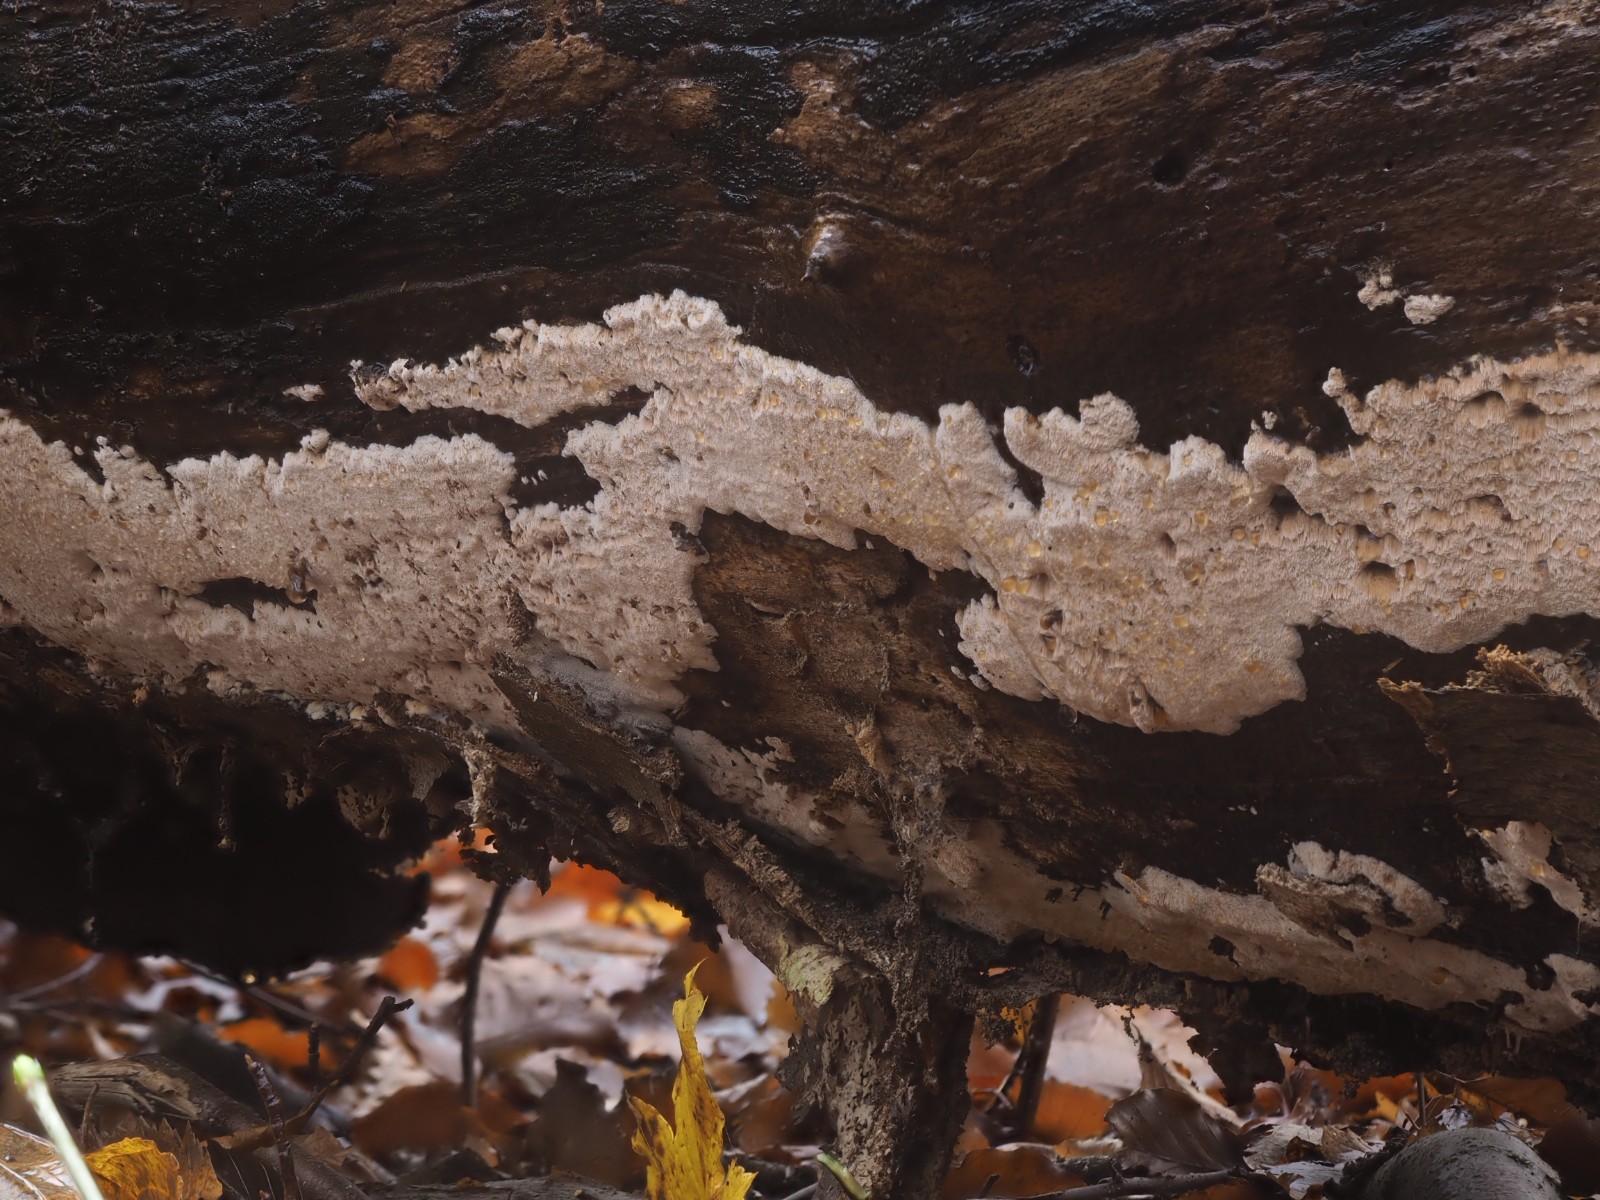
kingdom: Fungi
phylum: Basidiomycota
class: Agaricomycetes
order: Polyporales
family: Meruliaceae
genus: Mycoacia
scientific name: Mycoacia gilvescens
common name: rosa pastelporesvamp
